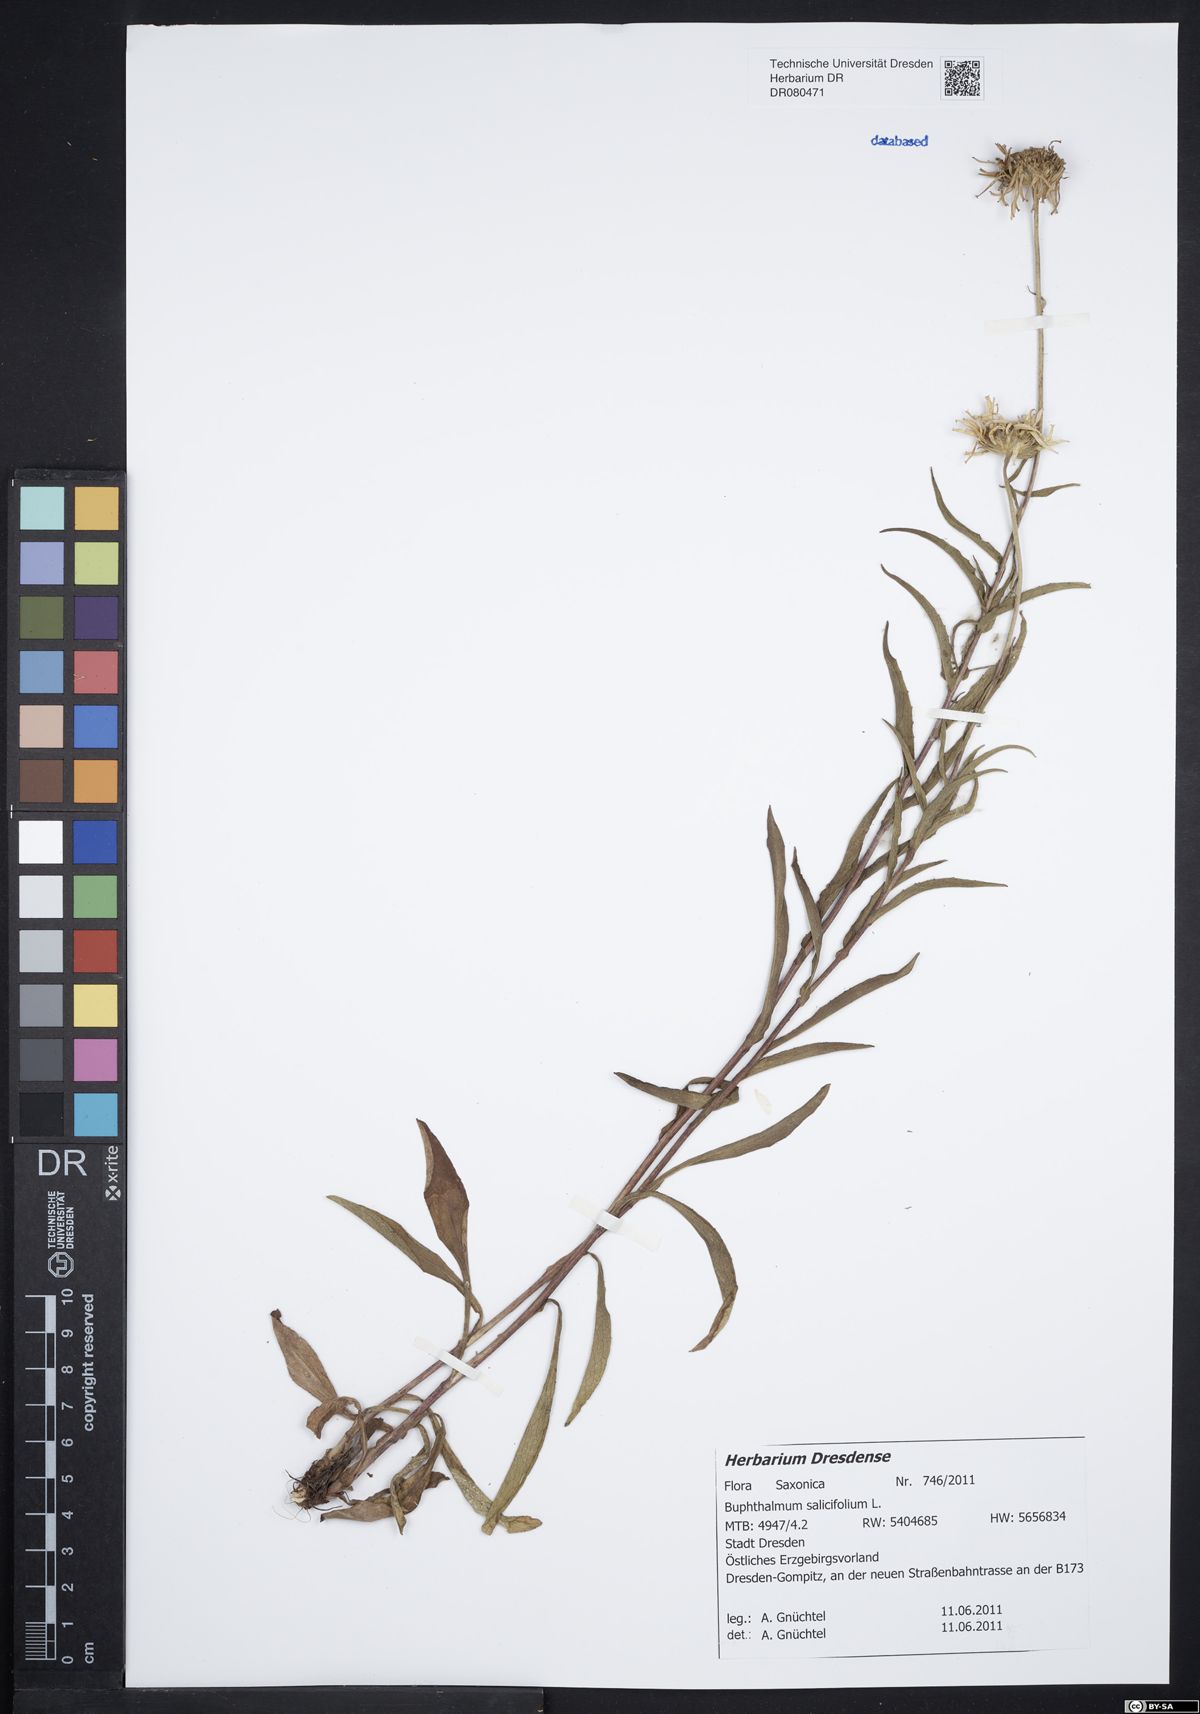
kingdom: Plantae
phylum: Tracheophyta
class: Magnoliopsida
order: Asterales
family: Asteraceae
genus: Buphthalmum
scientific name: Buphthalmum salicifolium
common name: Willow-leaved yellow-oxeye
